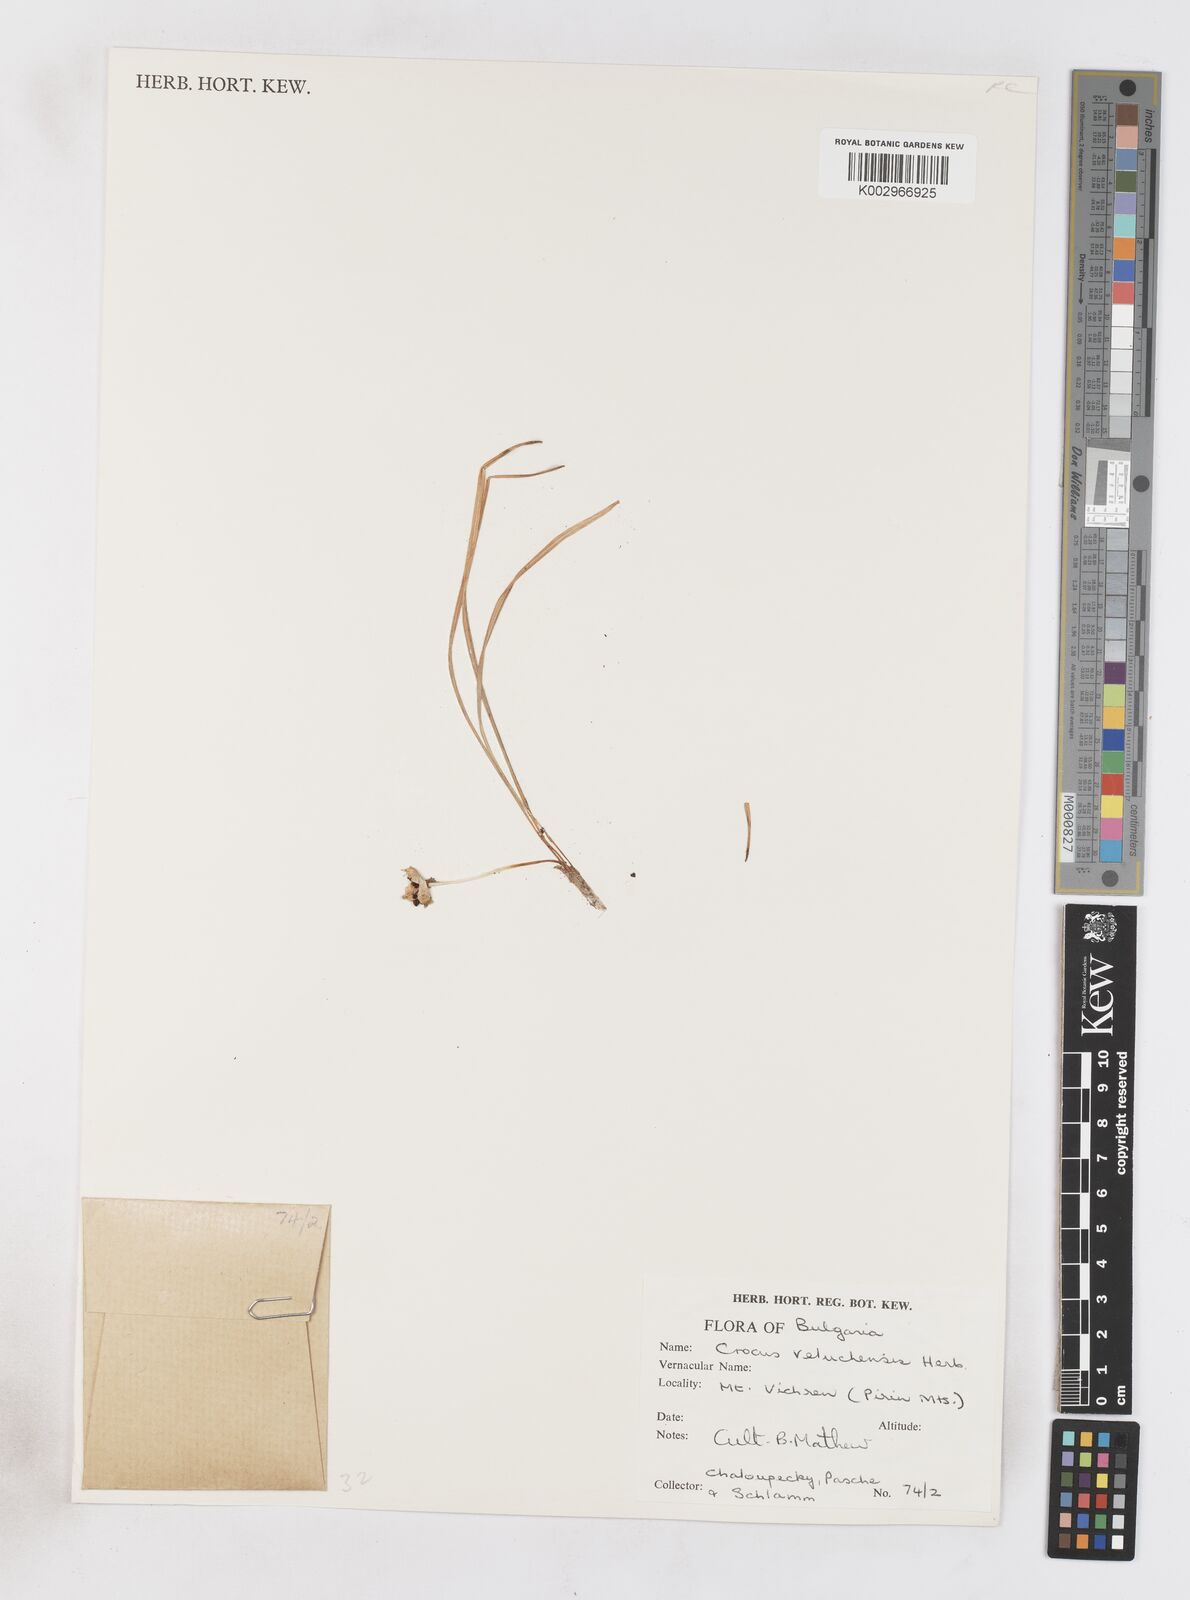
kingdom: Plantae
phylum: Tracheophyta
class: Liliopsida
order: Asparagales
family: Iridaceae
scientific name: Iridaceae
